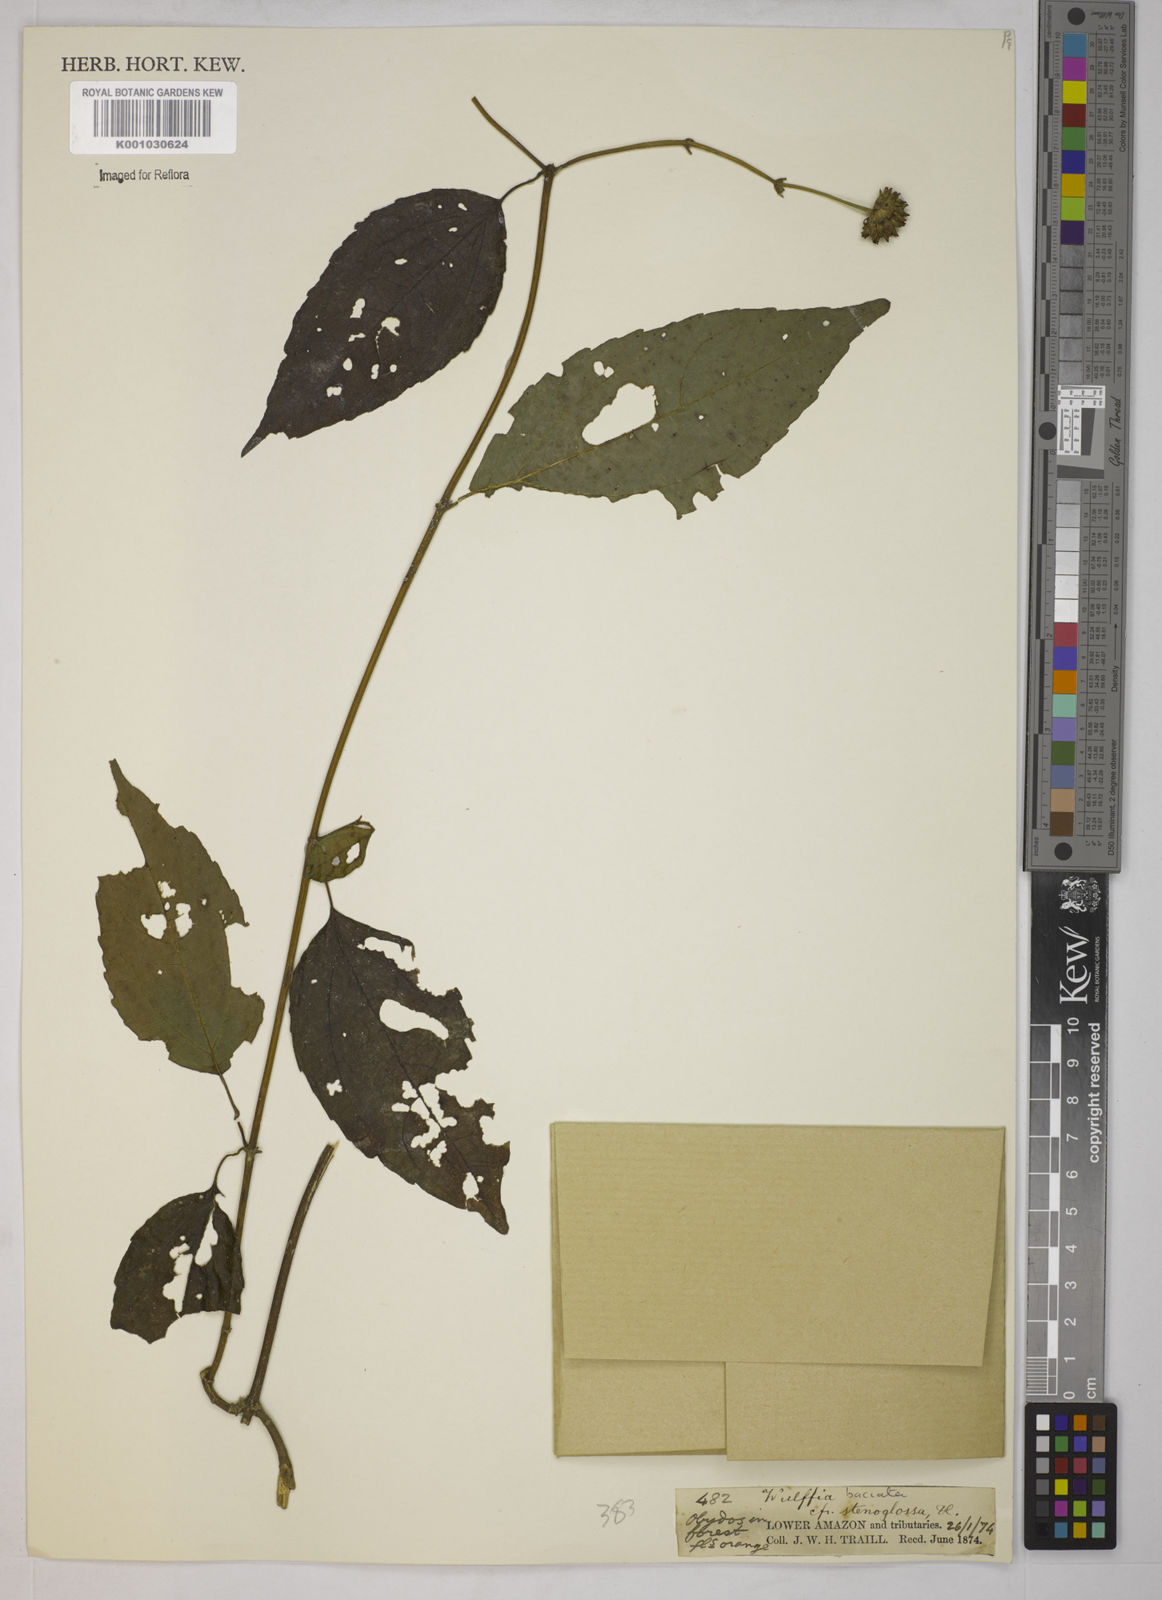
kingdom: Plantae
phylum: Tracheophyta
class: Magnoliopsida
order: Asterales
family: Asteraceae
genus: Tilesia
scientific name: Tilesia baccata
